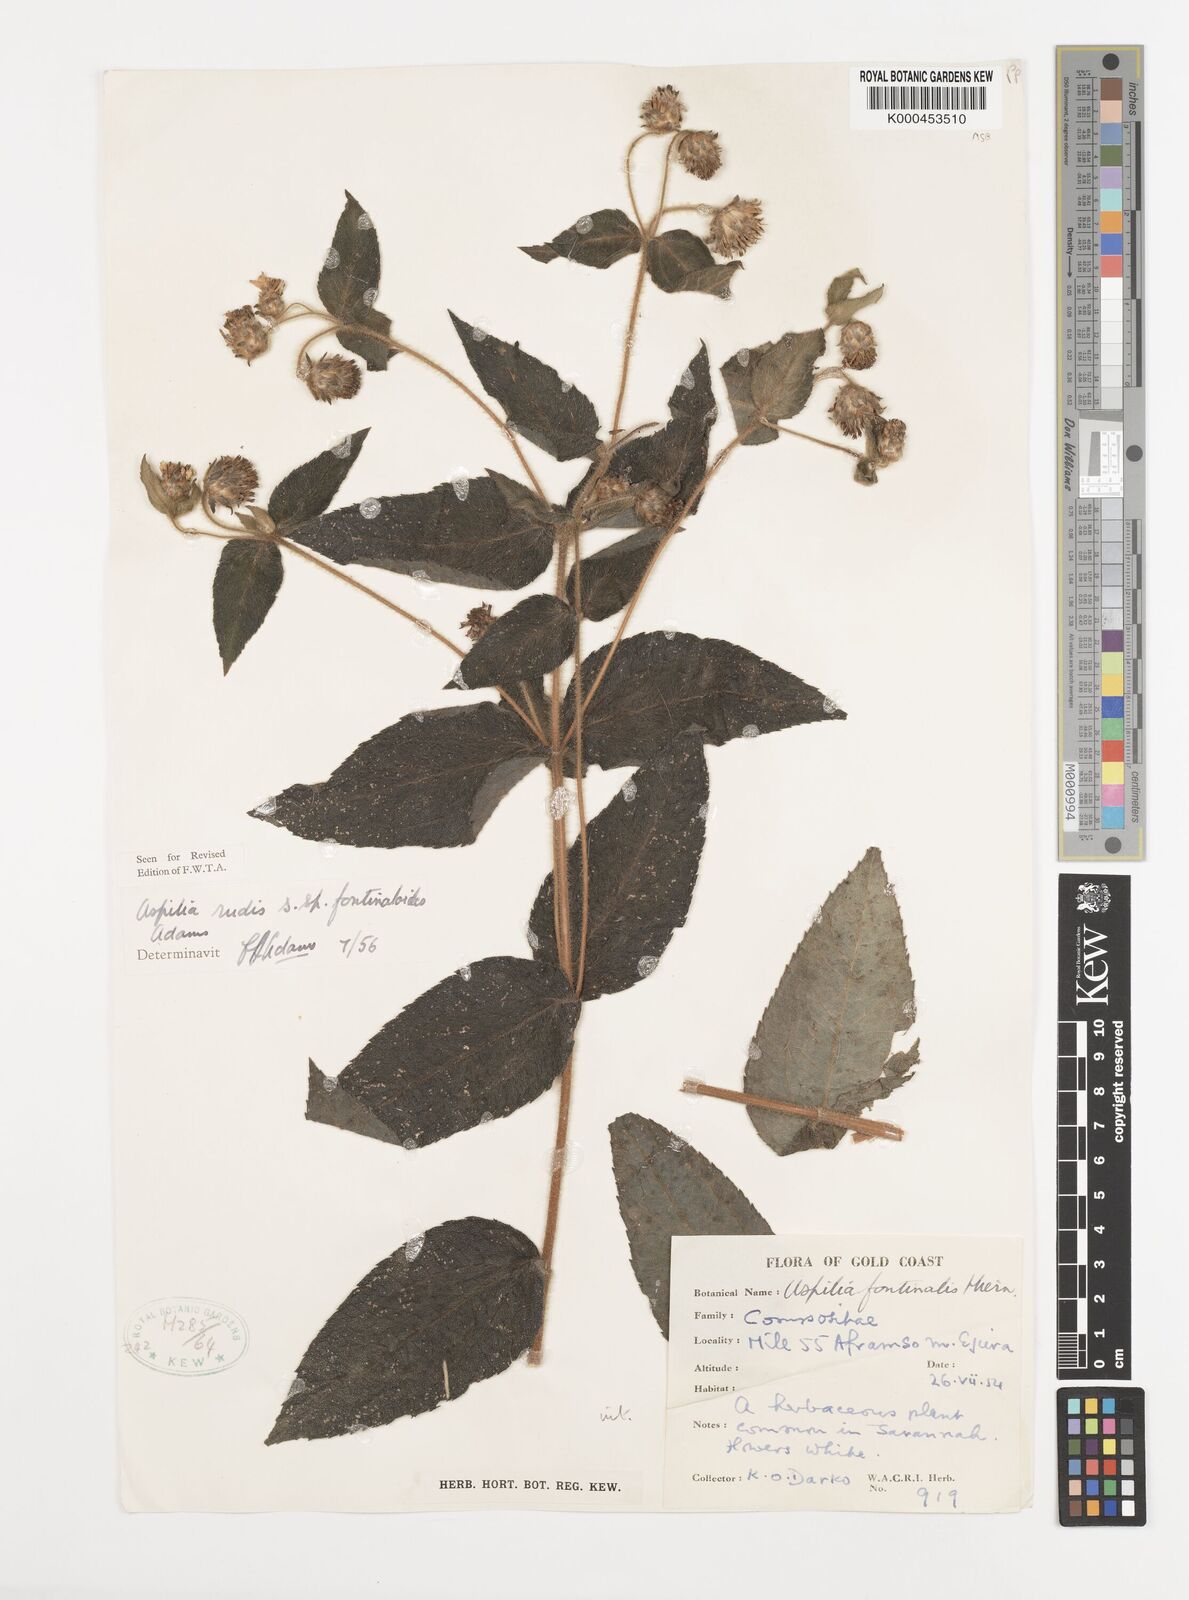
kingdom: Plantae
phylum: Tracheophyta
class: Magnoliopsida
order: Asterales
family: Asteraceae
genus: Aspilia
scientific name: Aspilia rudis
